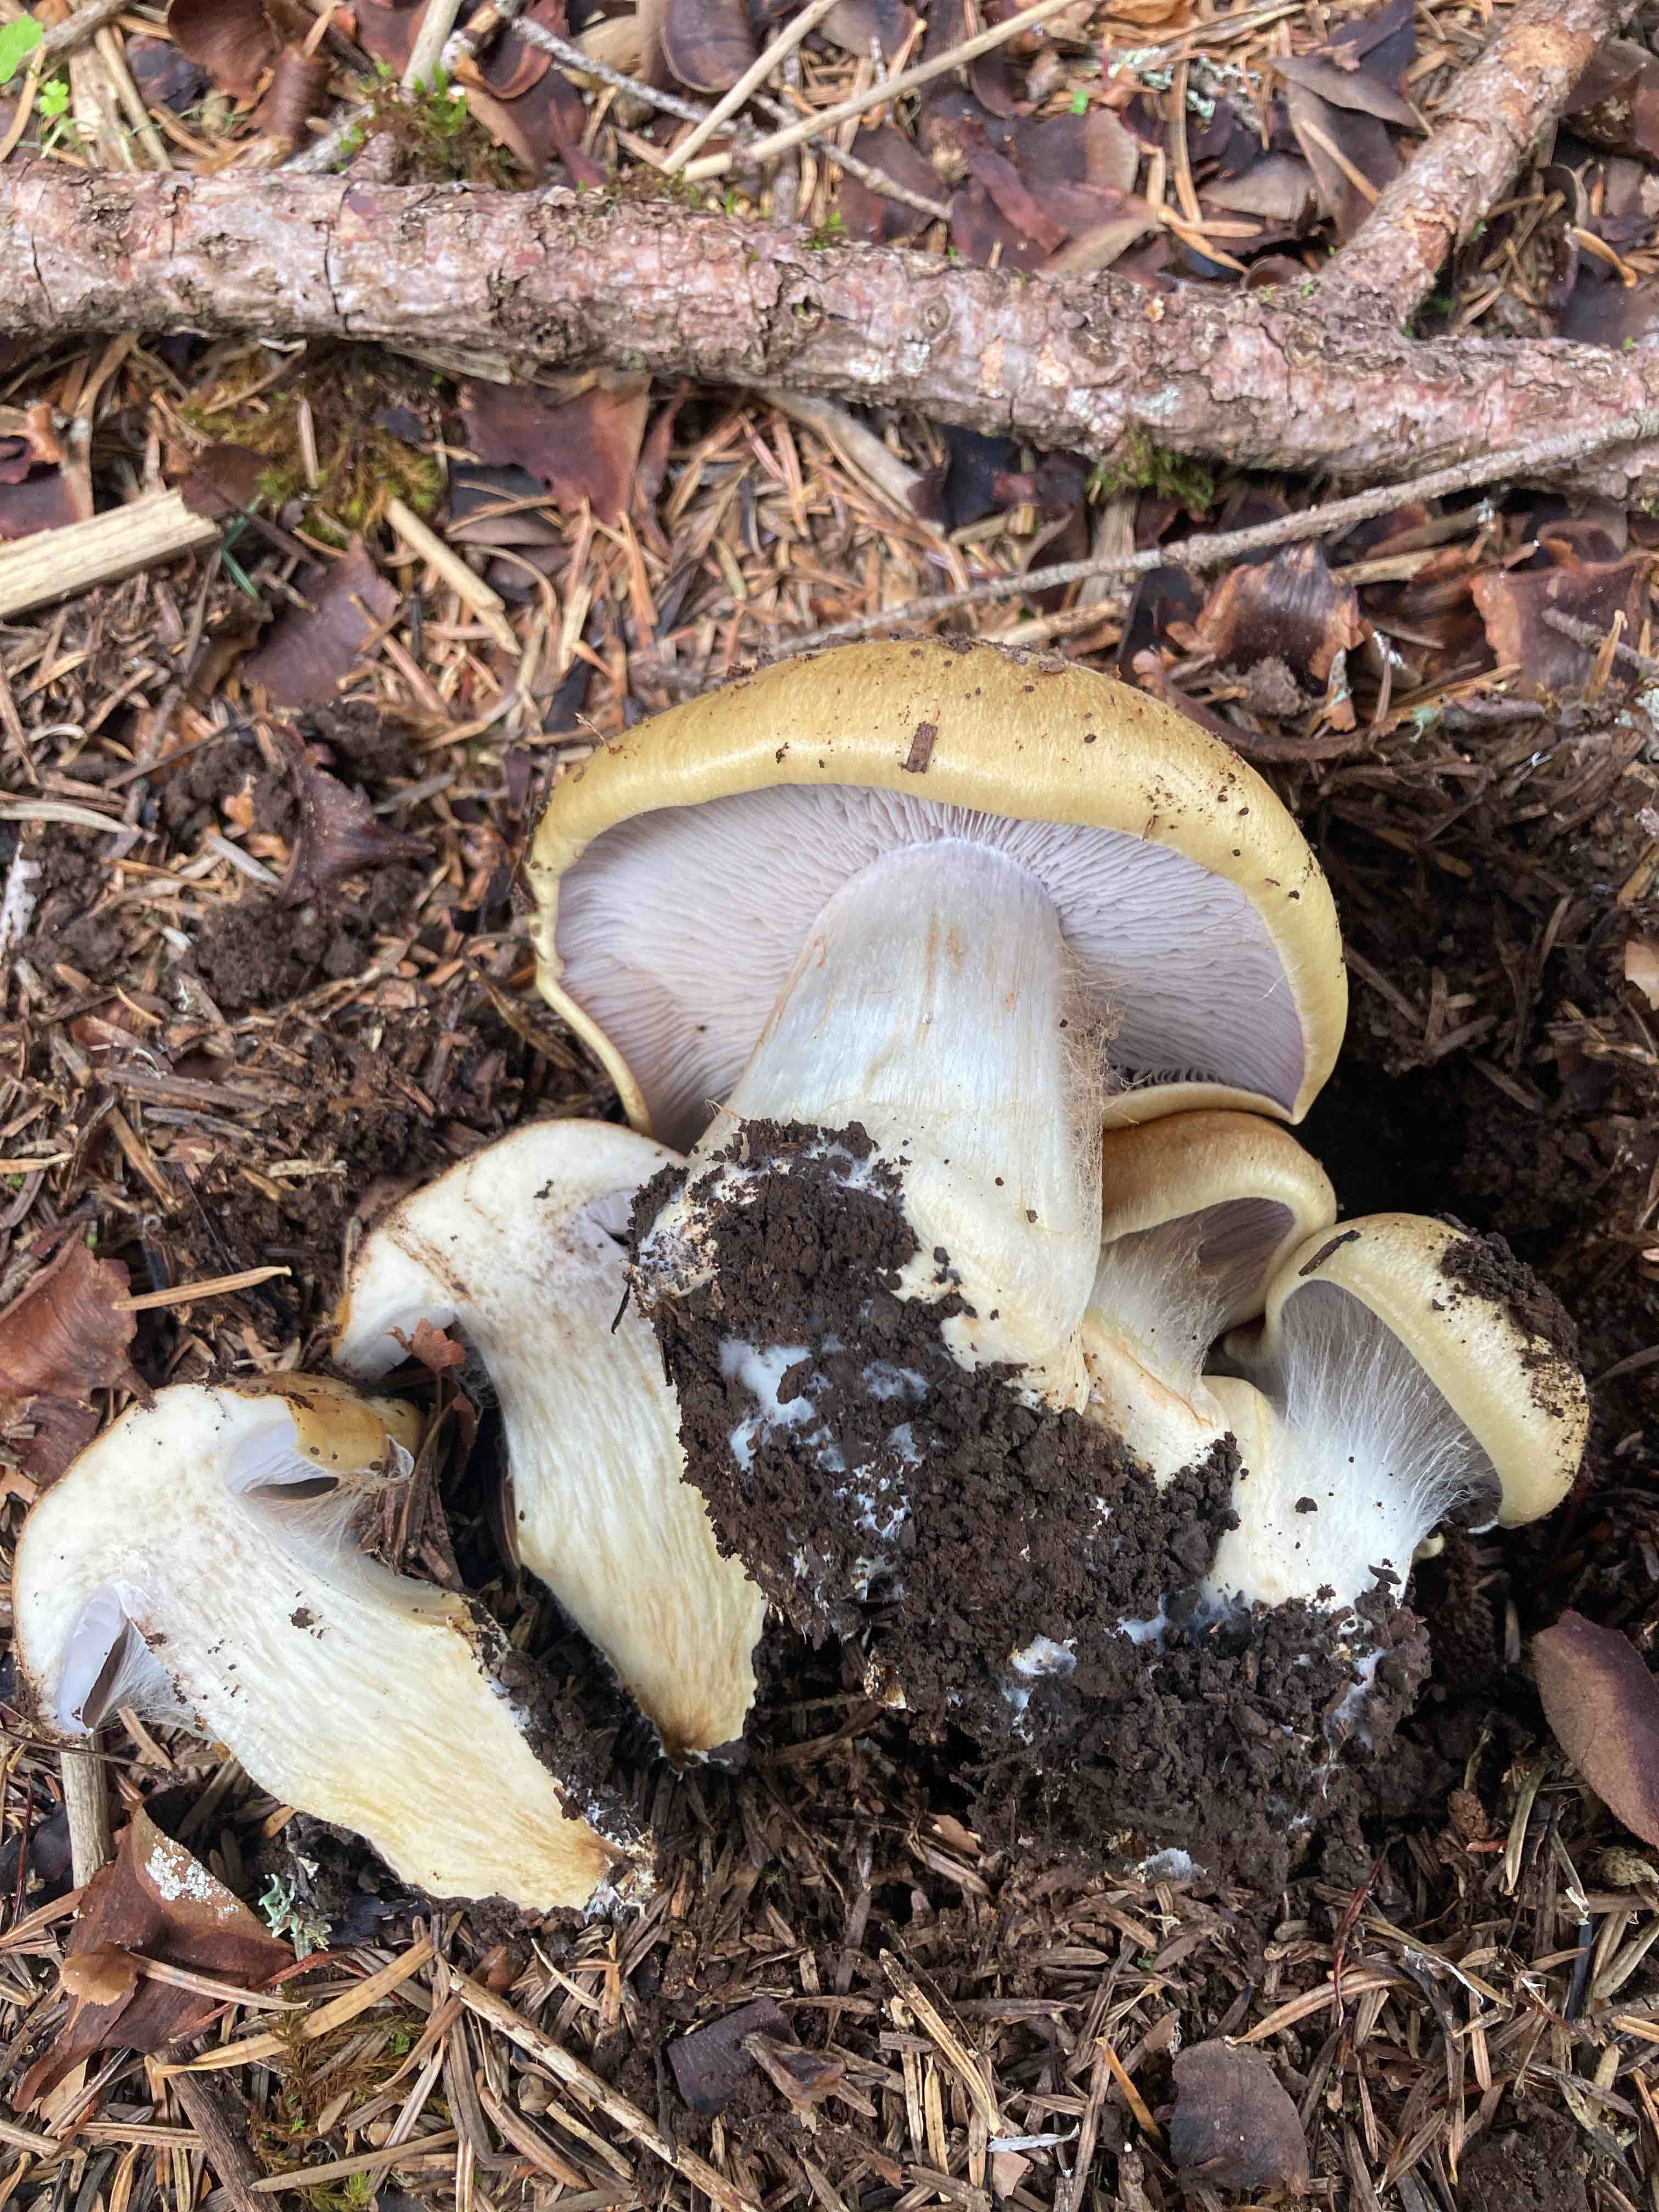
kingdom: Fungi
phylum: Basidiomycota
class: Agaricomycetes
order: Agaricales
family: Cortinariaceae
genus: Phlegmacium
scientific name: Phlegmacium
